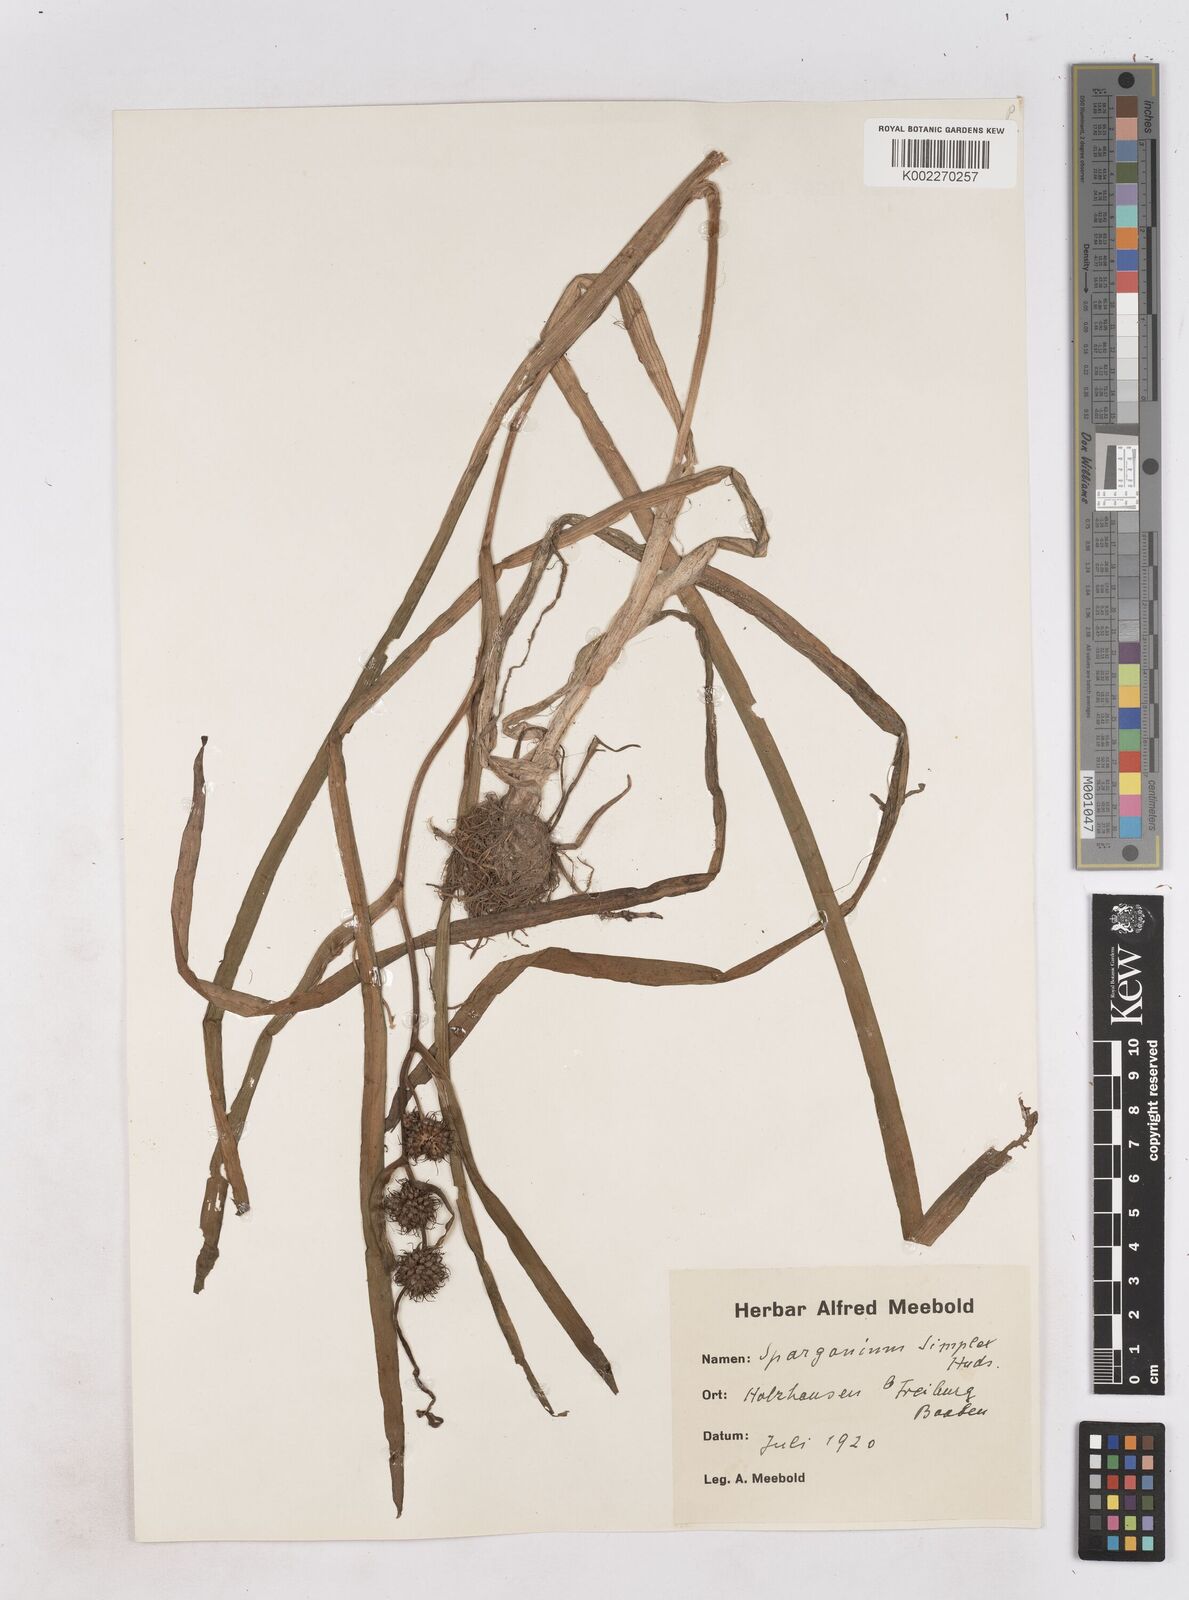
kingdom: Plantae
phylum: Tracheophyta
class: Liliopsida
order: Poales
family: Typhaceae
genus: Sparganium
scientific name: Sparganium emersum
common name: Unbranched bur-reed
